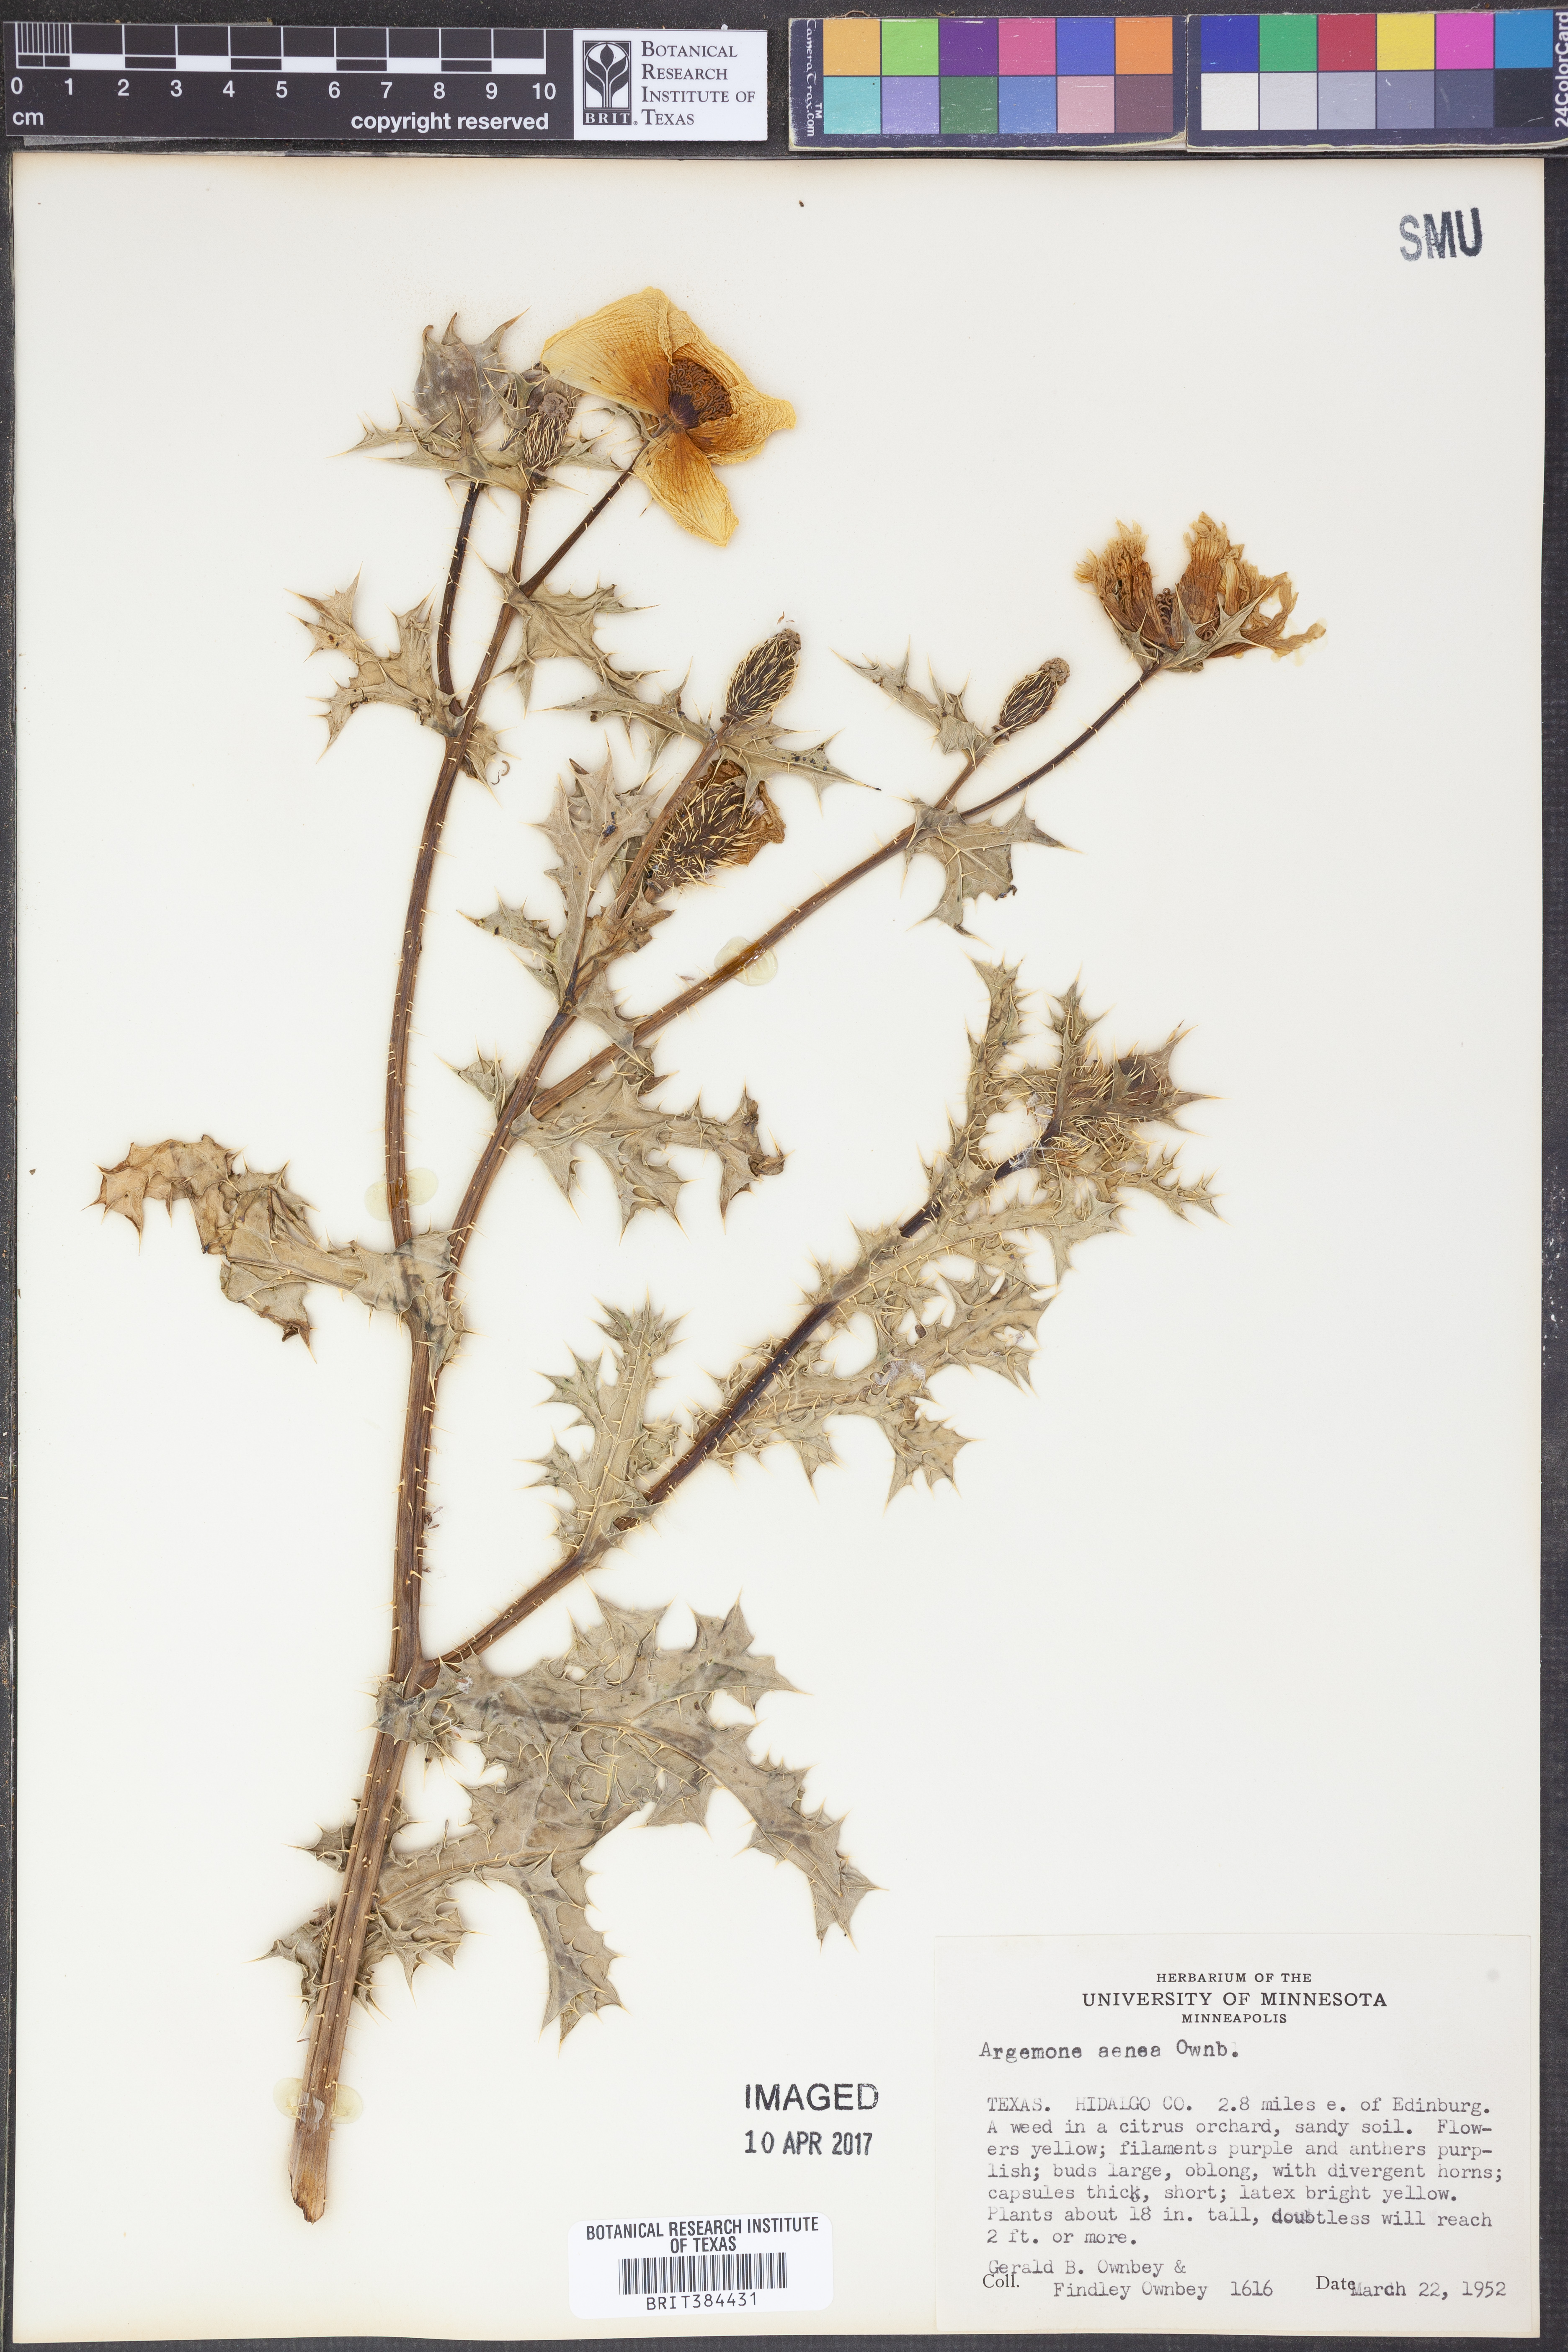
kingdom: Plantae
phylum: Tracheophyta
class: Magnoliopsida
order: Ranunculales
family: Papaveraceae
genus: Argemone
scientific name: Argemone aenea
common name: Golden prickly-poppy
